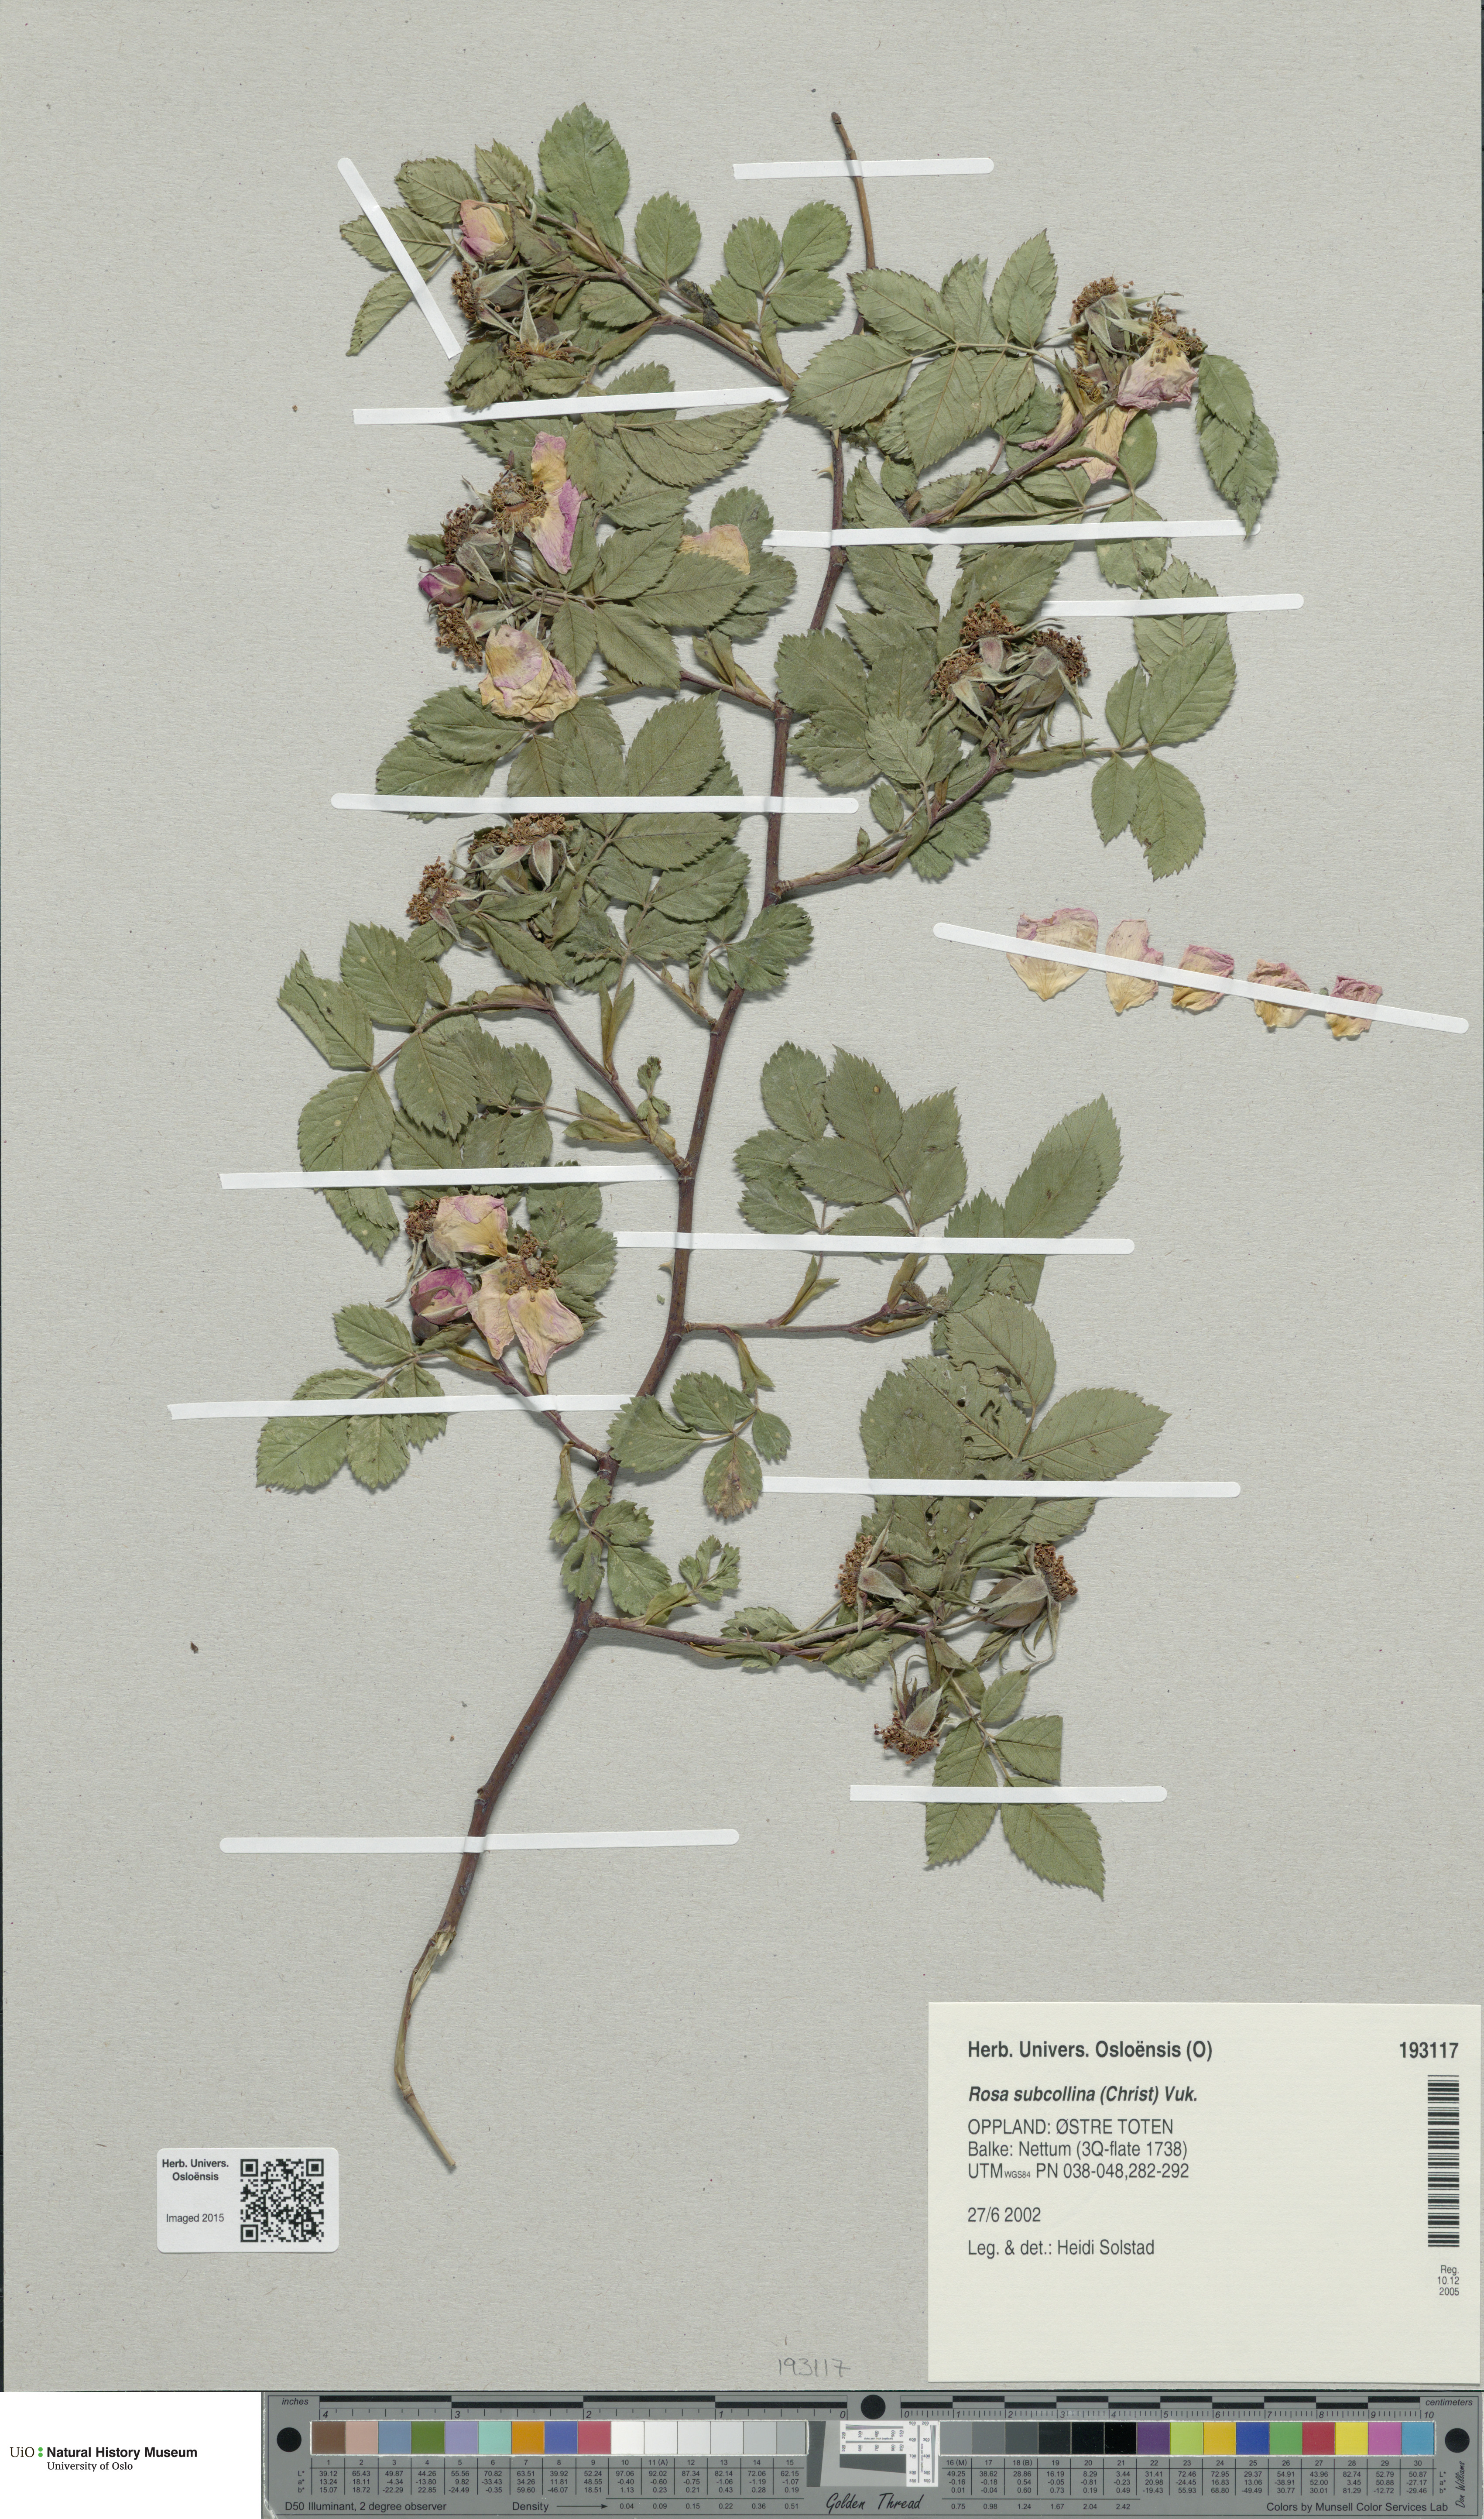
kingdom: Plantae
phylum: Tracheophyta
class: Magnoliopsida
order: Rosales
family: Rosaceae
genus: Rosa
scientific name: Rosa subcollina
